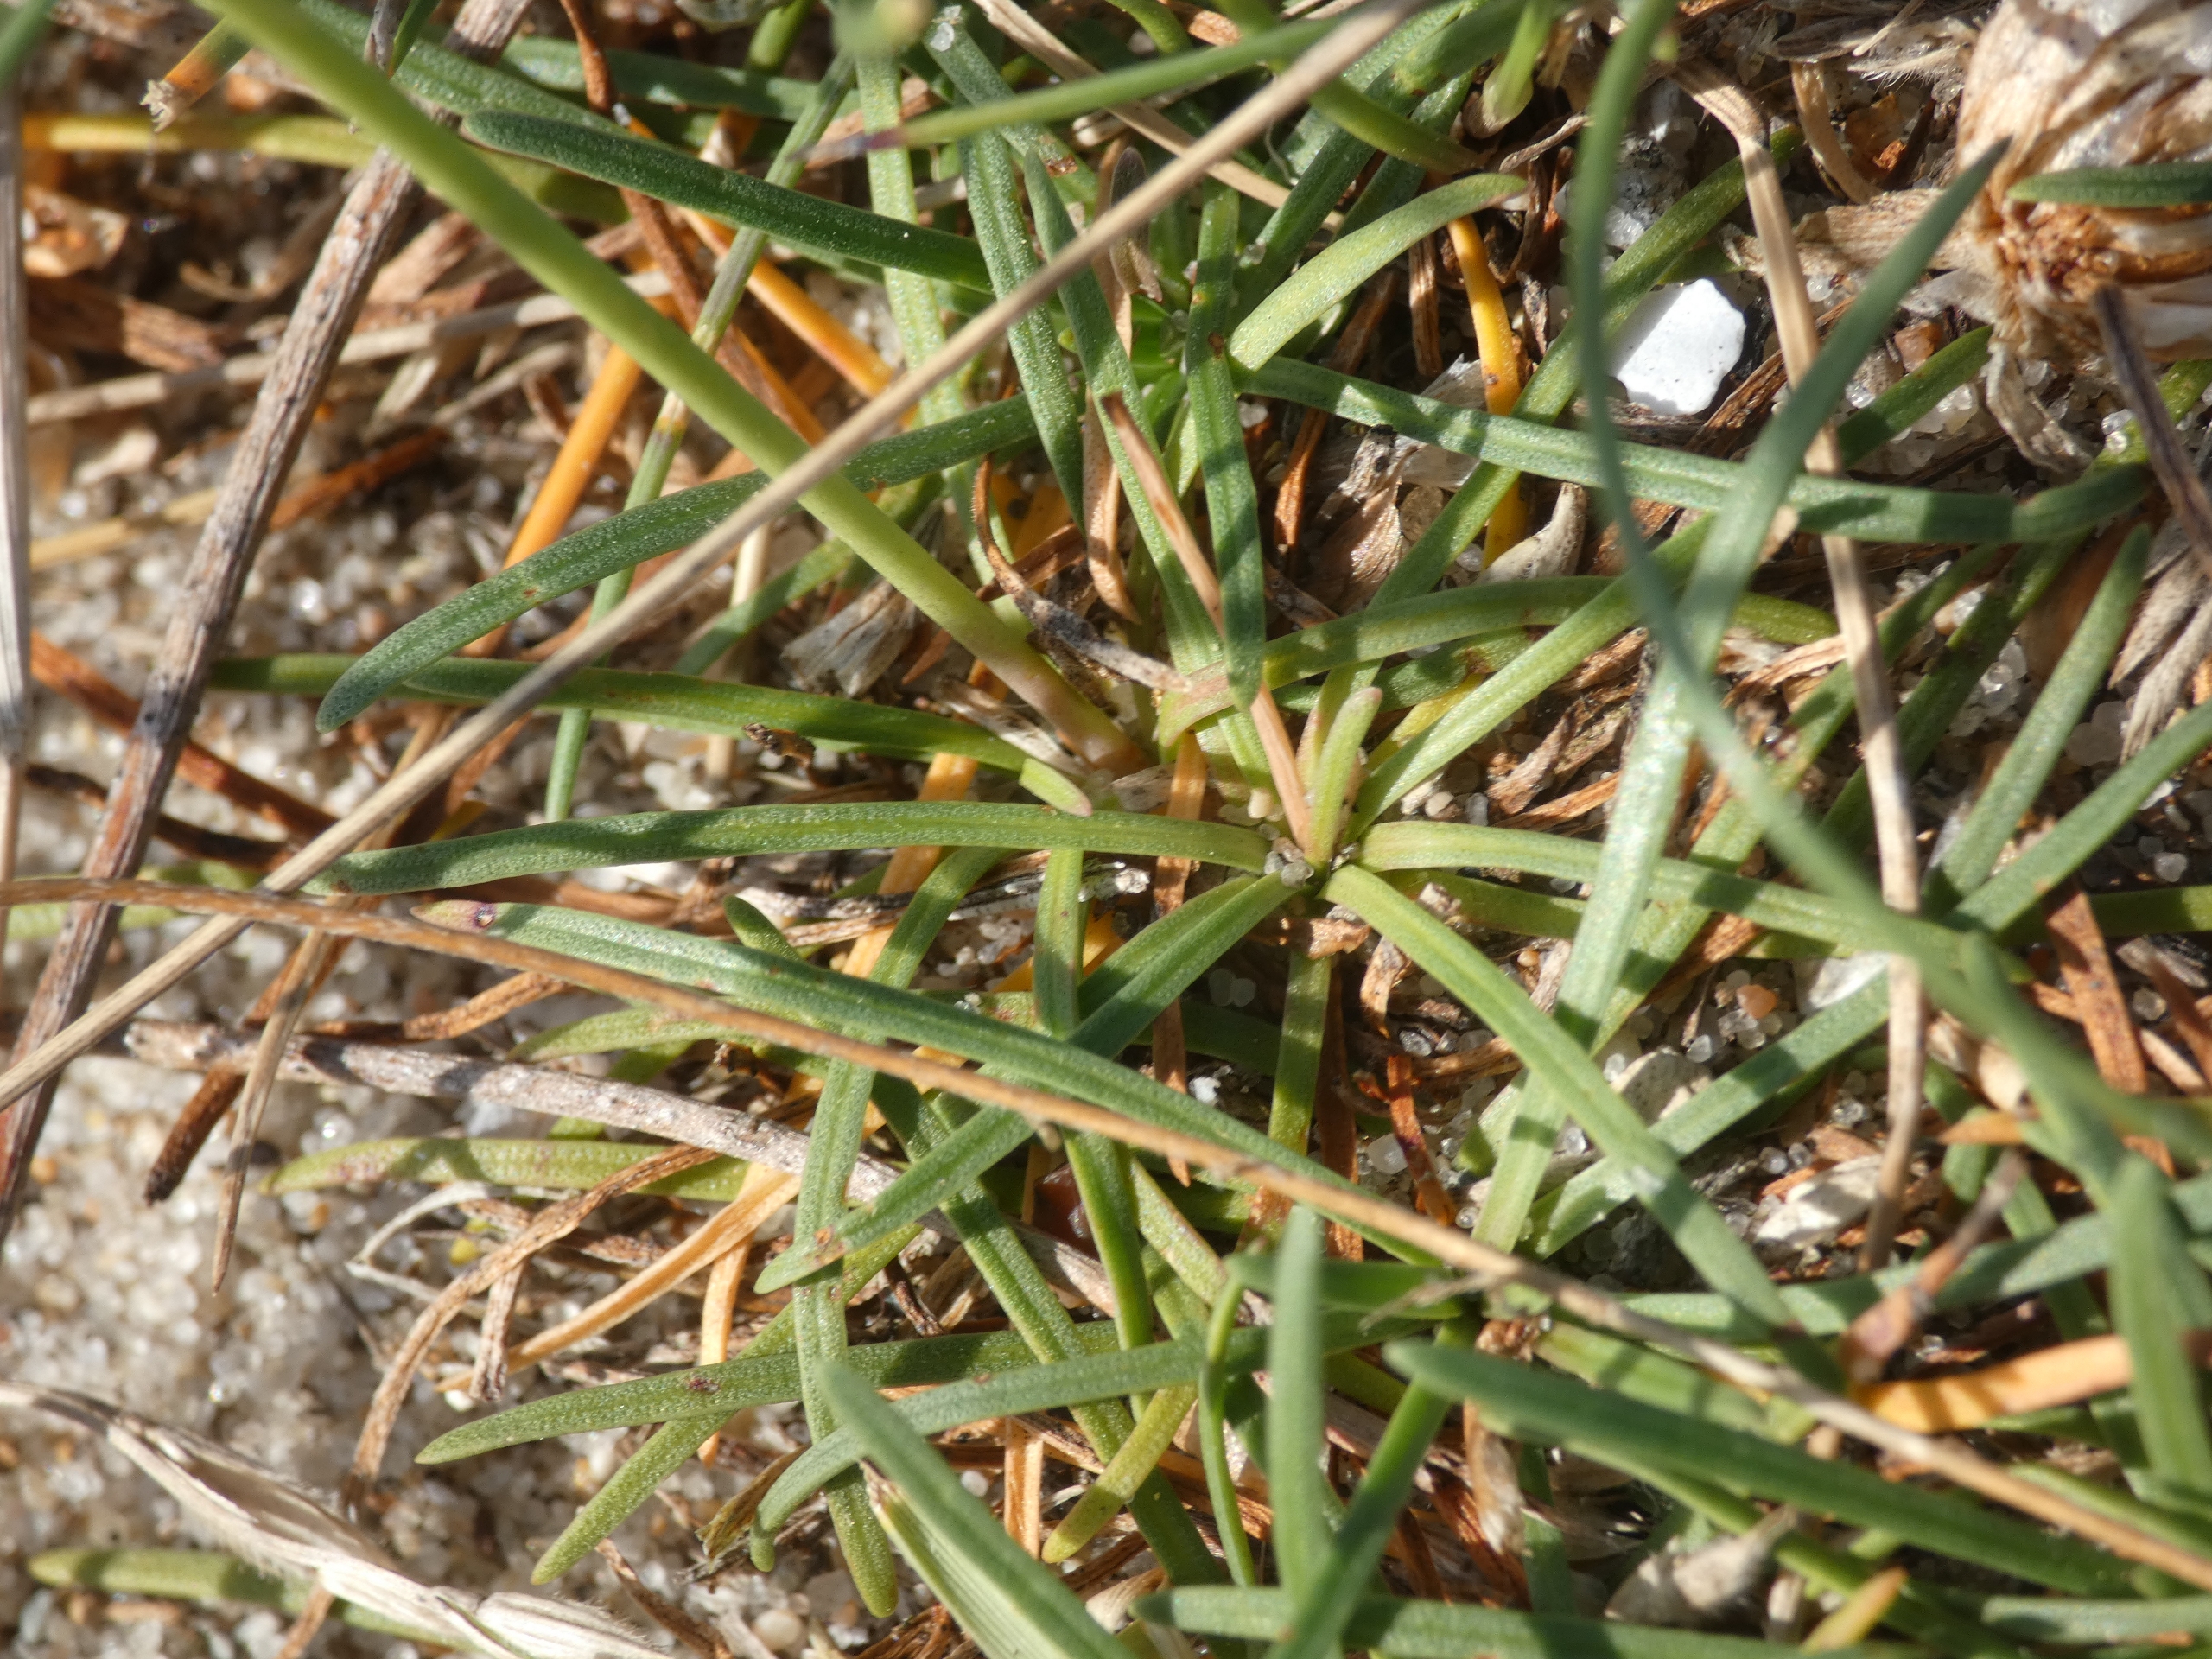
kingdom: Plantae
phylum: Tracheophyta
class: Magnoliopsida
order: Caryophyllales
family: Plumbaginaceae
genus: Armeria
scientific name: Armeria maritima
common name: Engelskgræs
